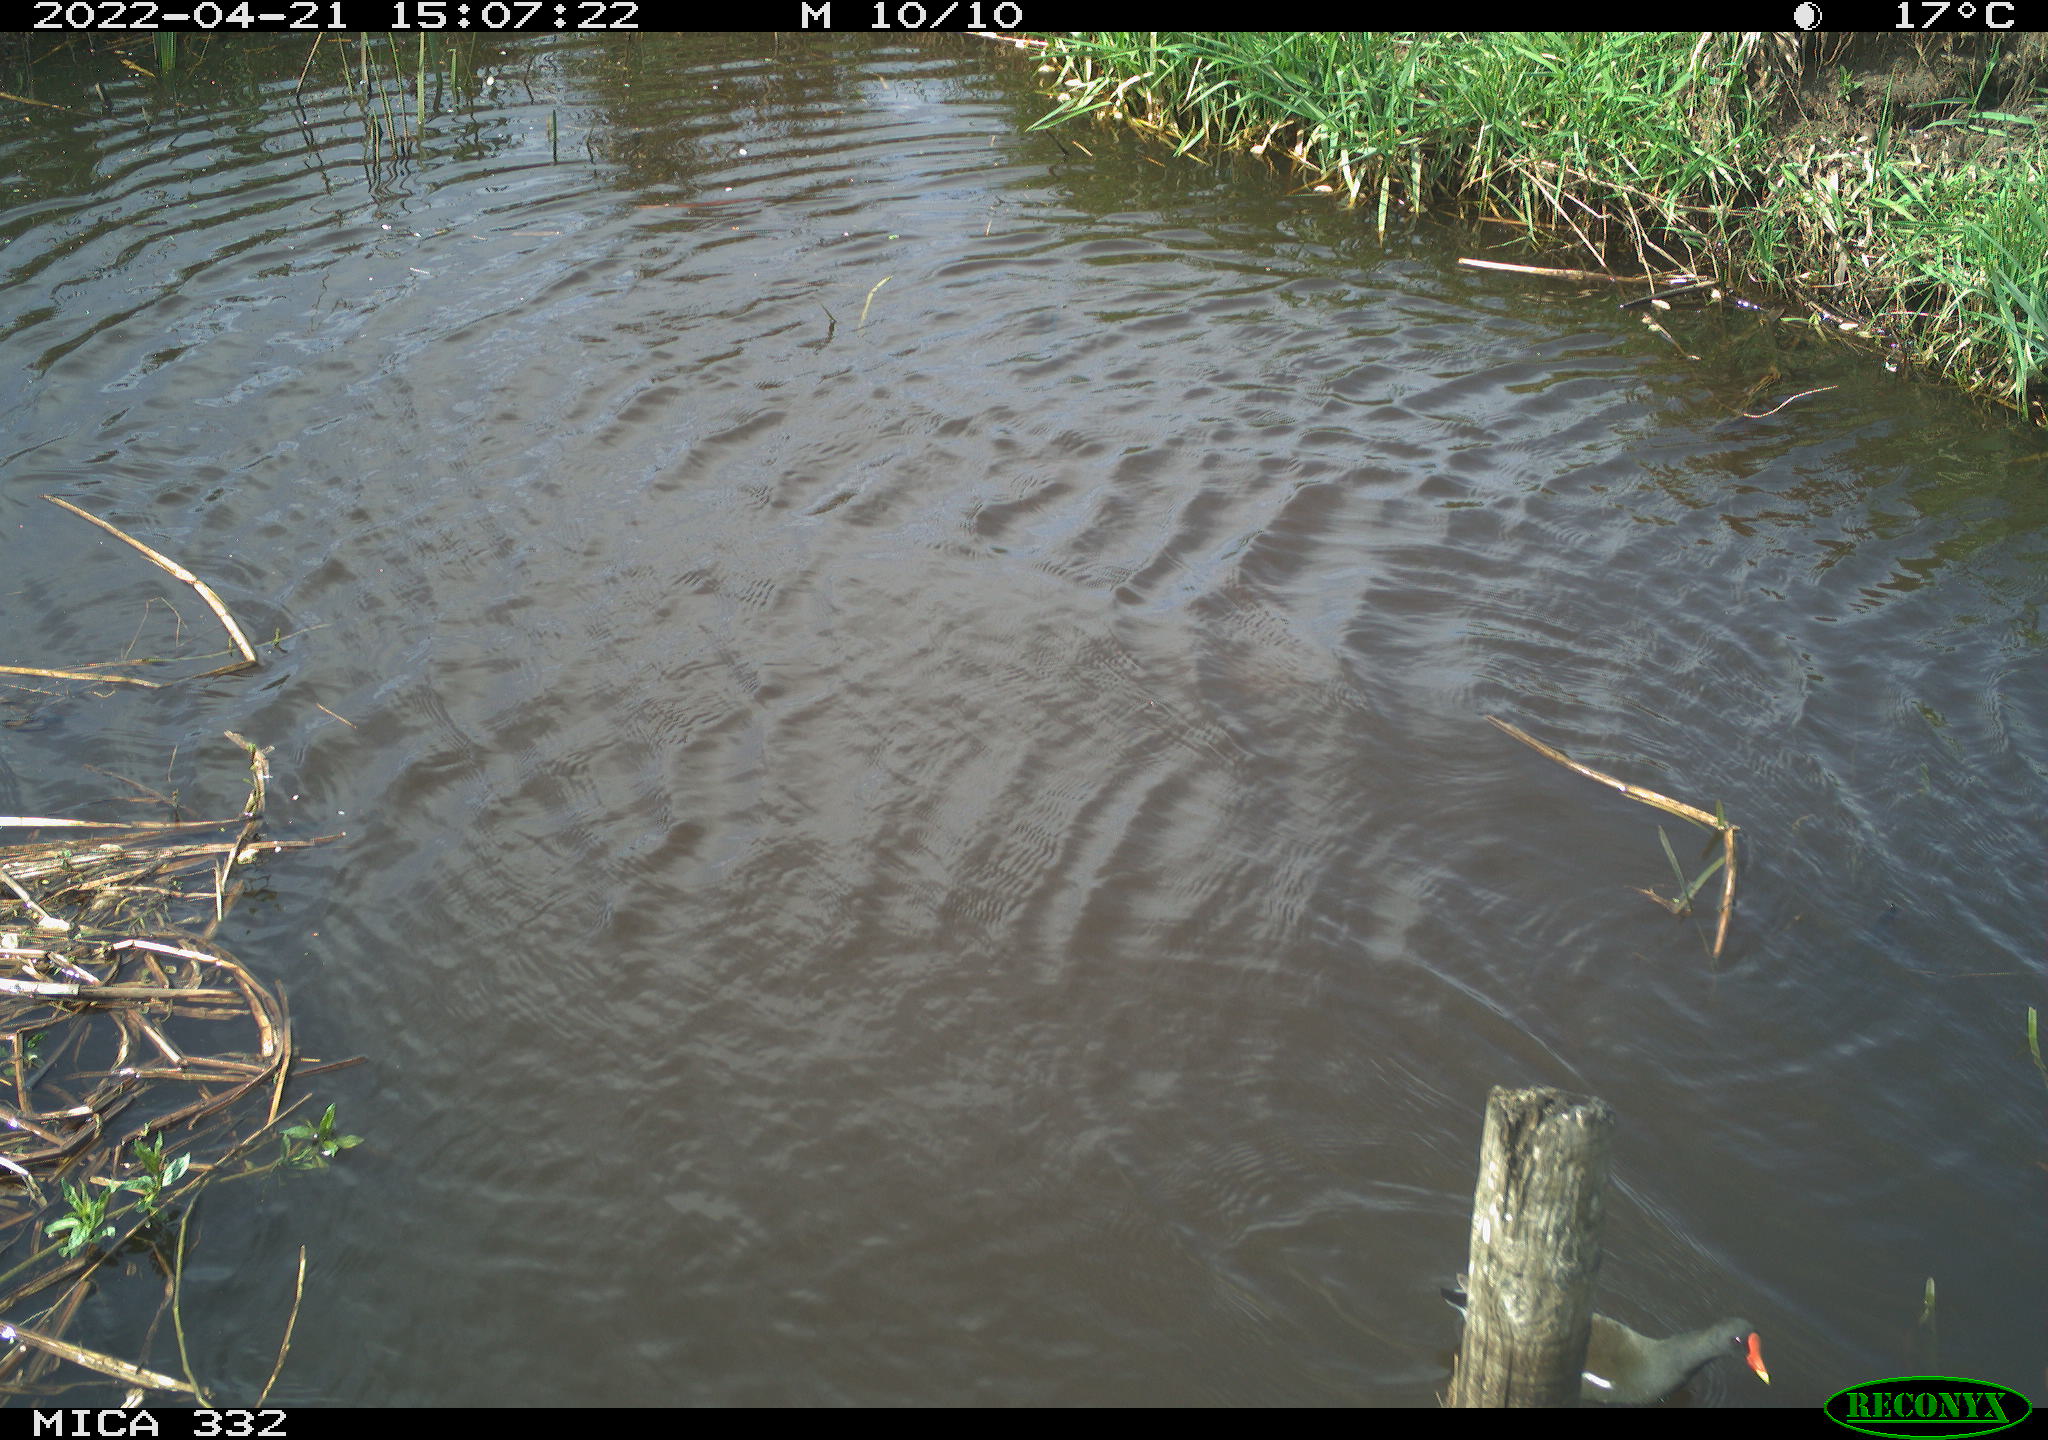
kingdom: Animalia
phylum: Chordata
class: Aves
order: Gruiformes
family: Rallidae
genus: Gallinula
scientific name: Gallinula chloropus
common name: Common moorhen
